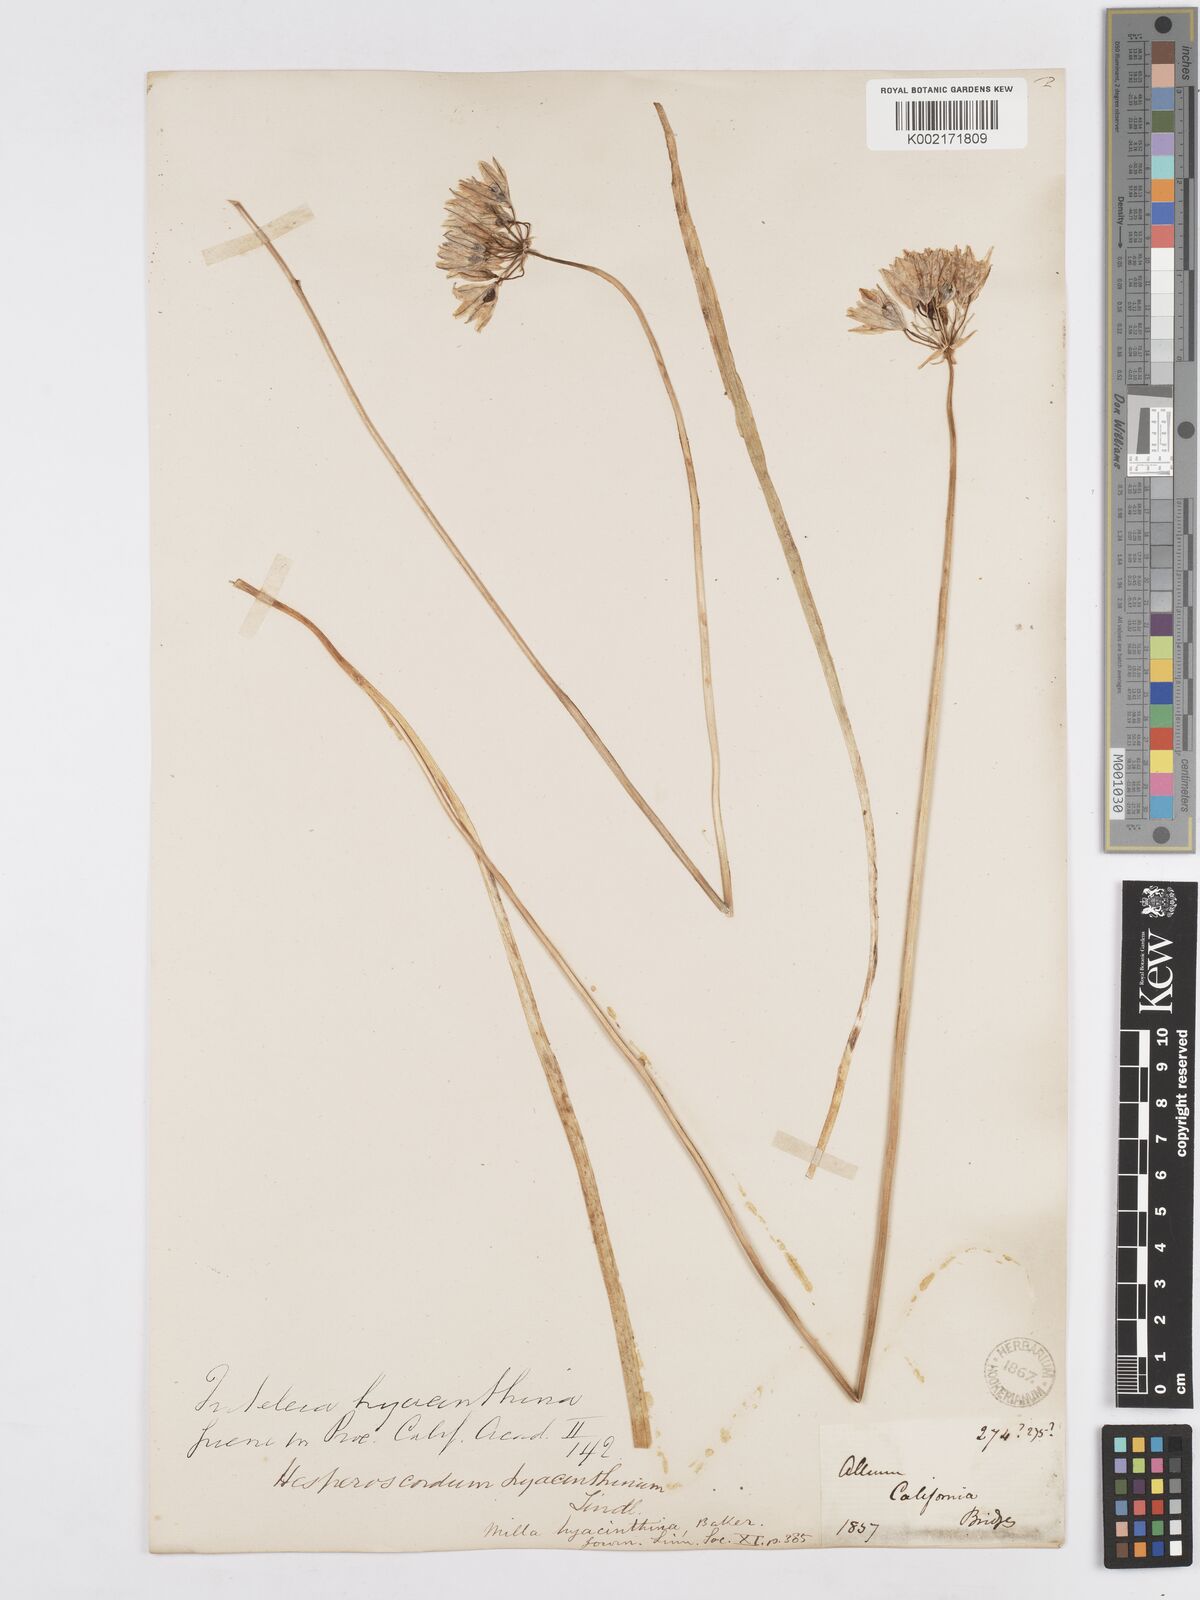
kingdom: Plantae
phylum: Tracheophyta
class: Liliopsida
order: Asparagales
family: Asparagaceae
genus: Triteleia
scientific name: Triteleia hyacinthina
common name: White brodiaea
